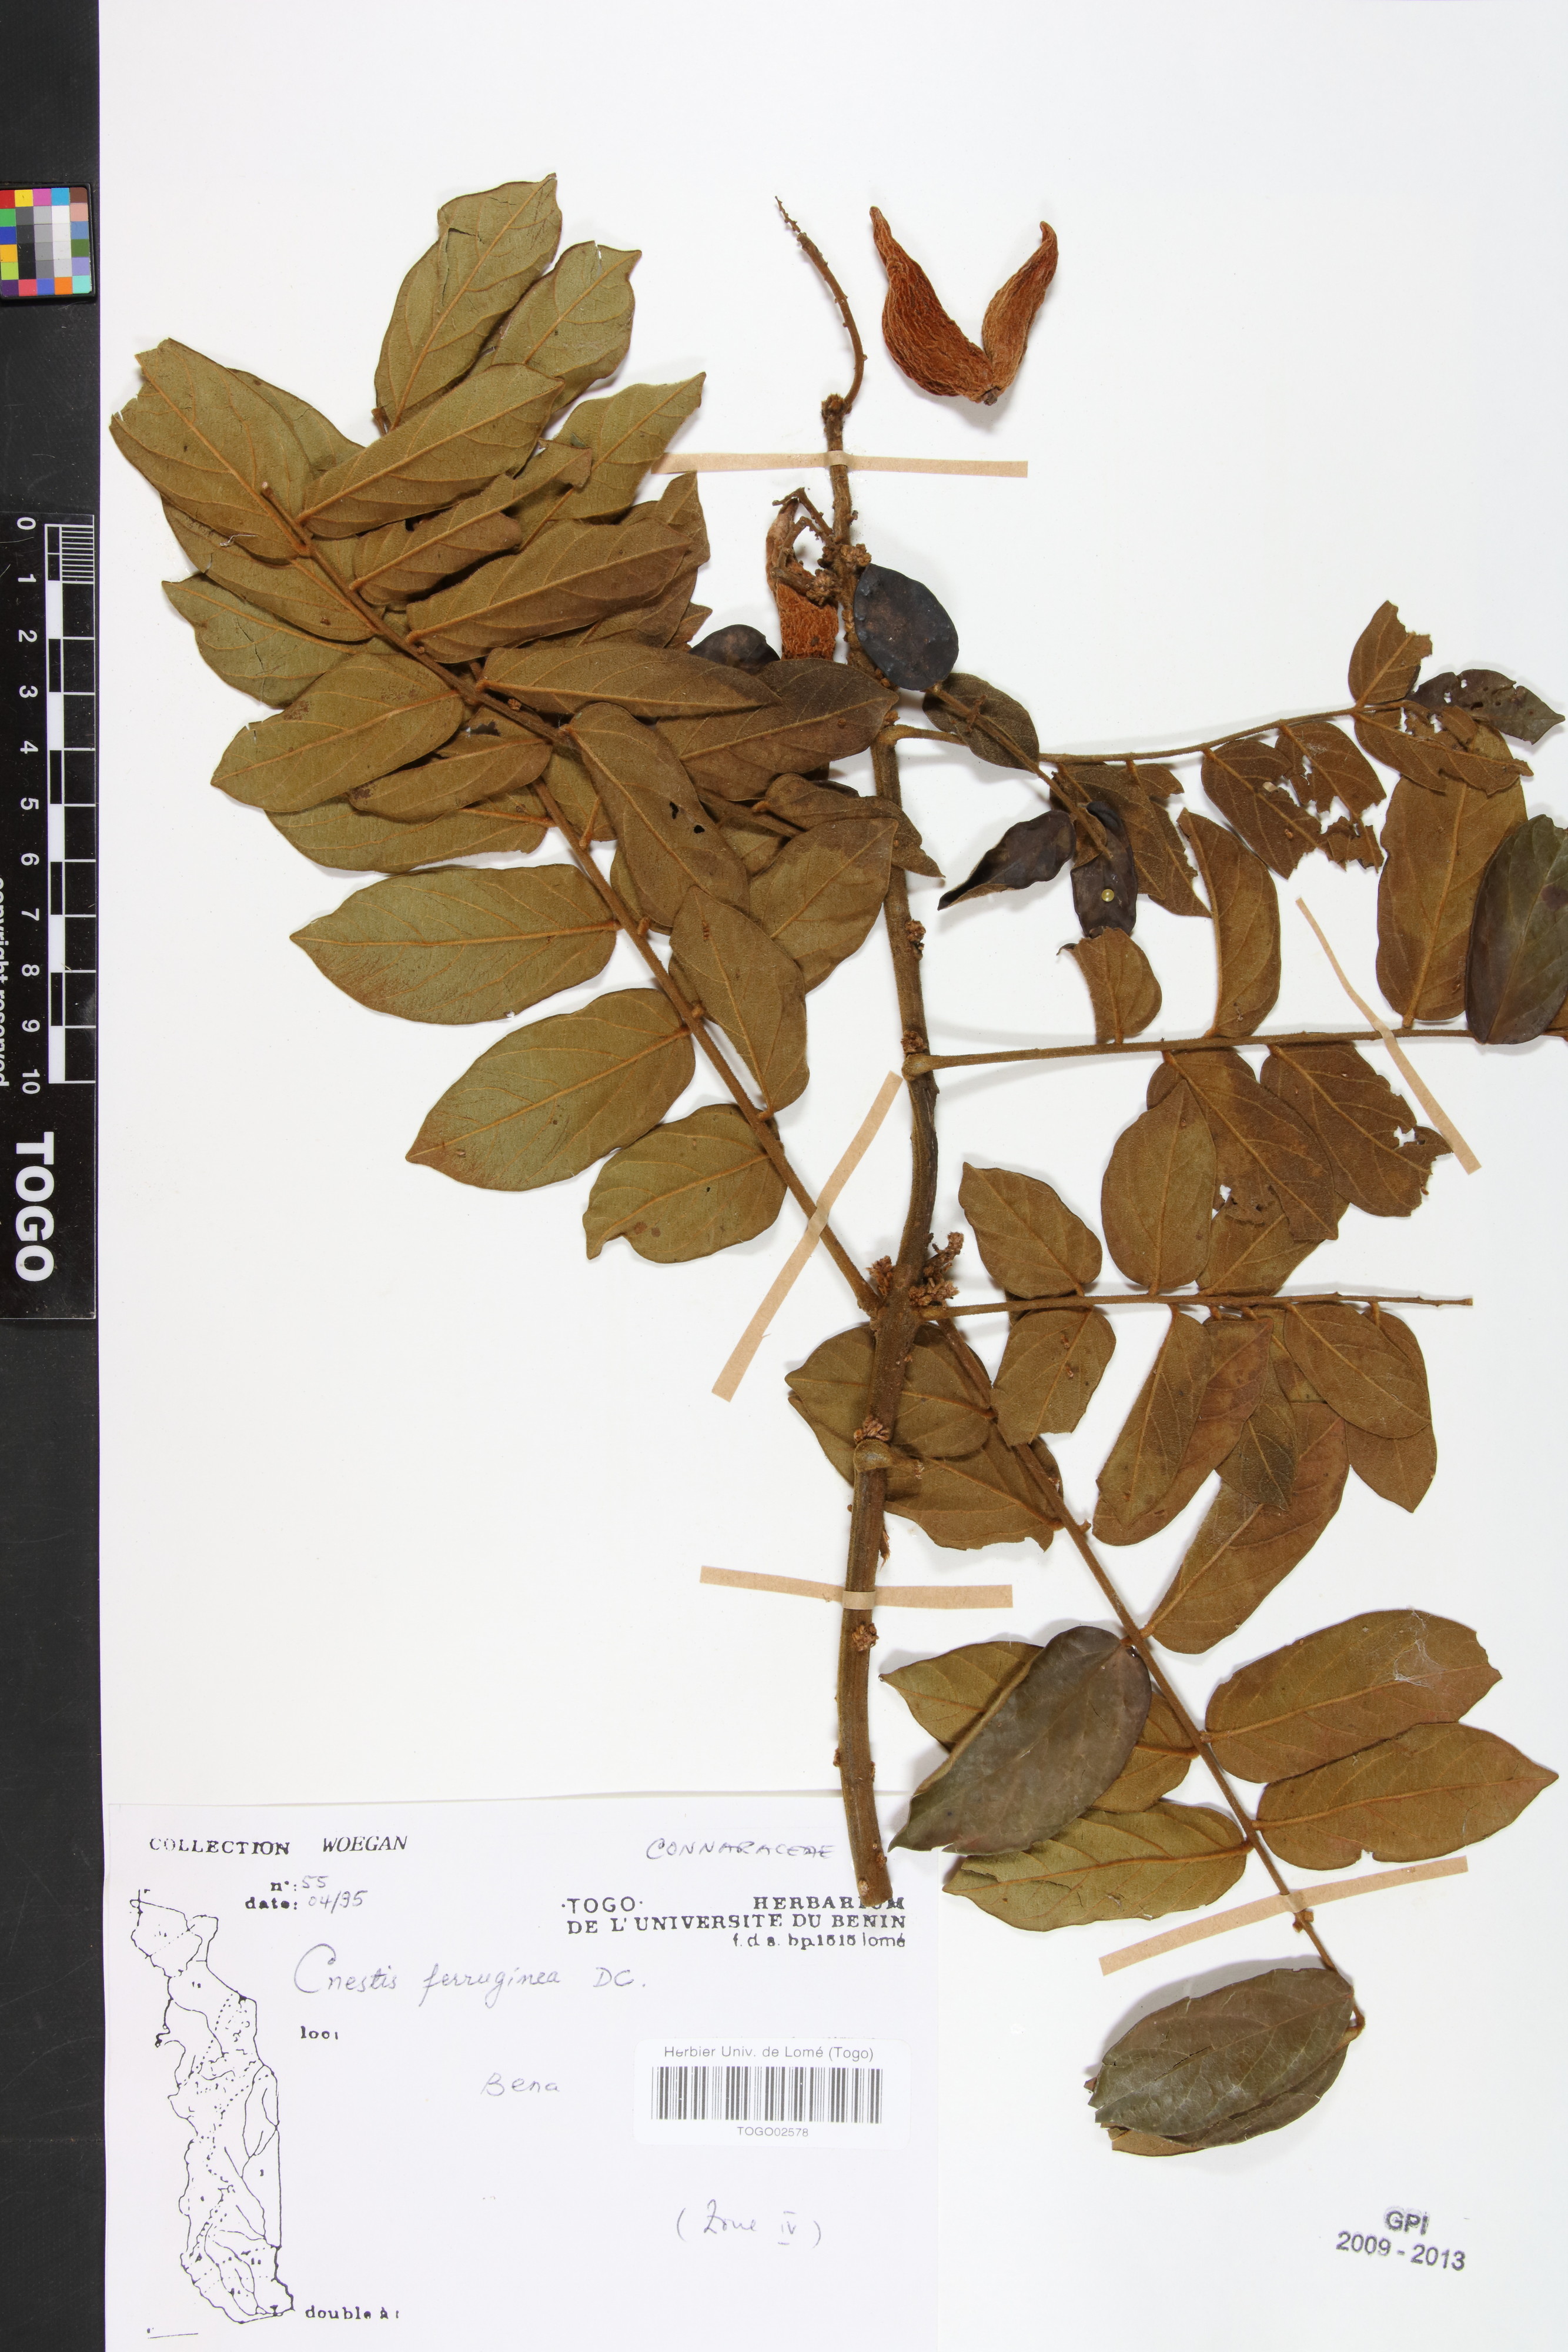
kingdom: Plantae
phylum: Tracheophyta
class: Magnoliopsida
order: Oxalidales
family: Connaraceae
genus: Cnestis
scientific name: Cnestis ferruginea
